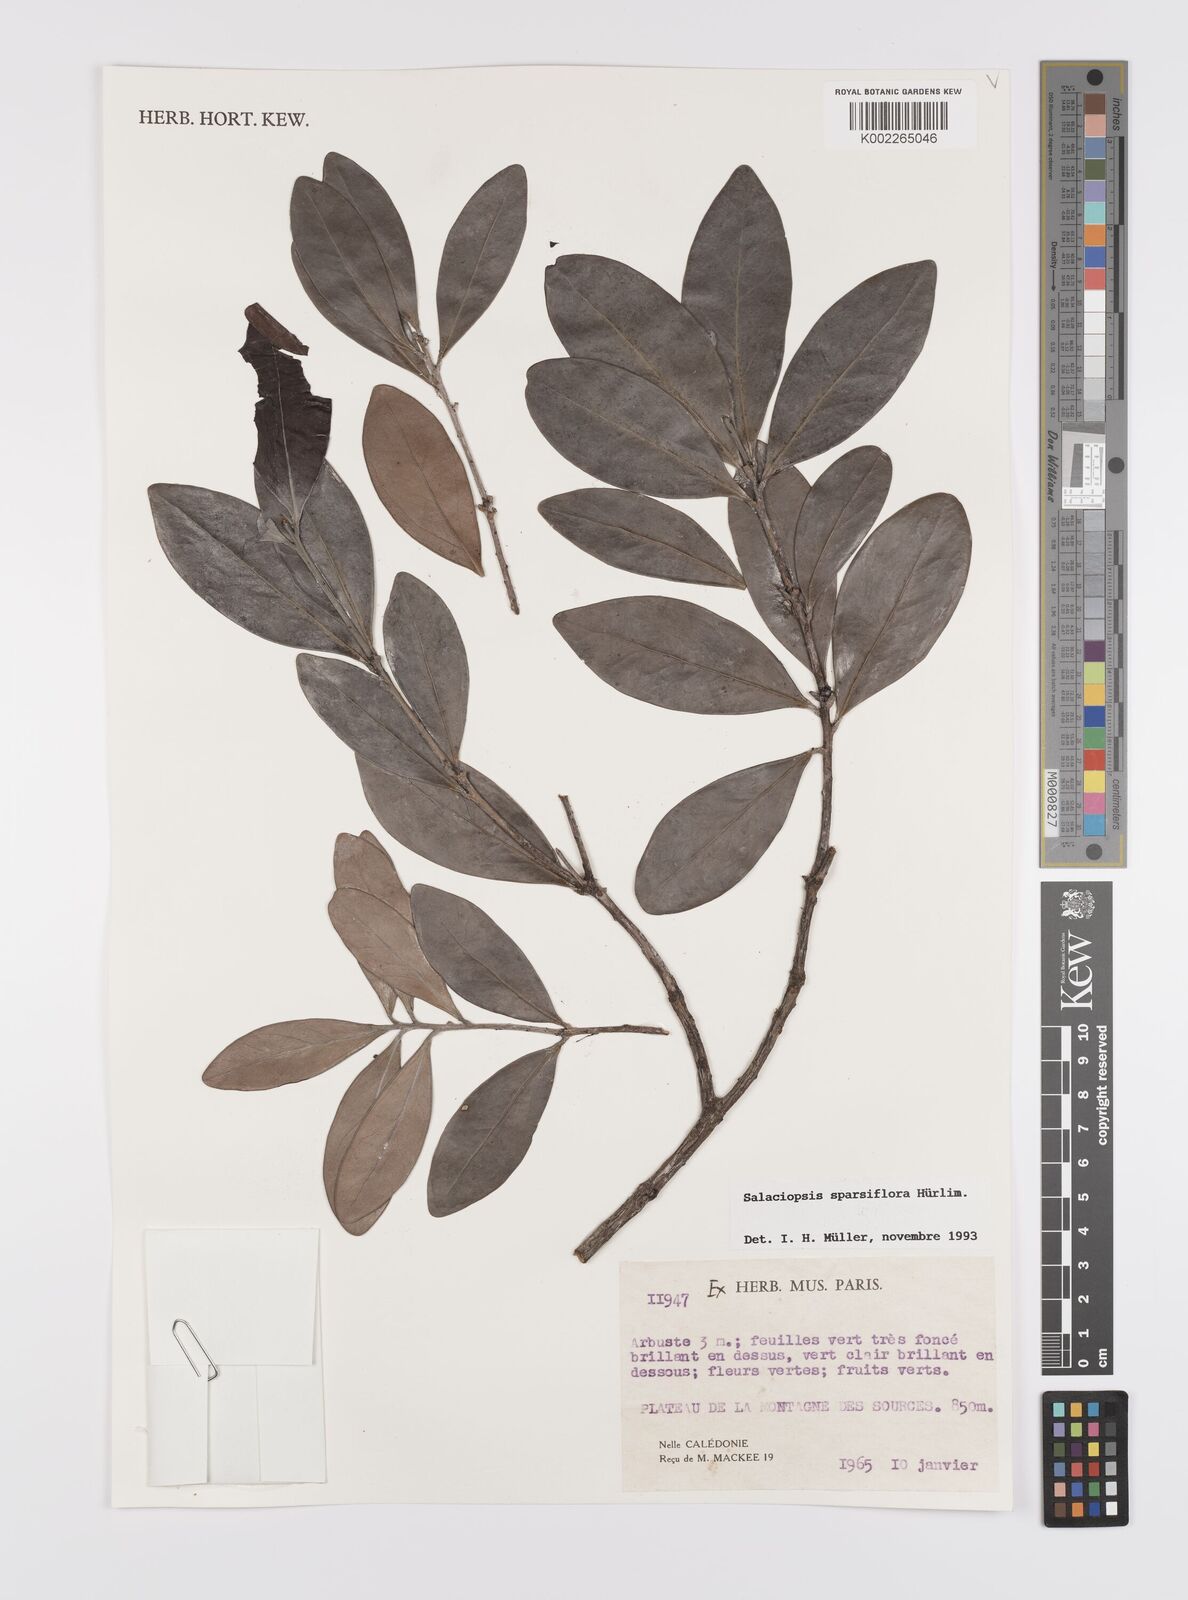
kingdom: Plantae
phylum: Tracheophyta
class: Magnoliopsida
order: Celastrales
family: Celastraceae
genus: Salaciopsis
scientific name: Salaciopsis sparsiflora
